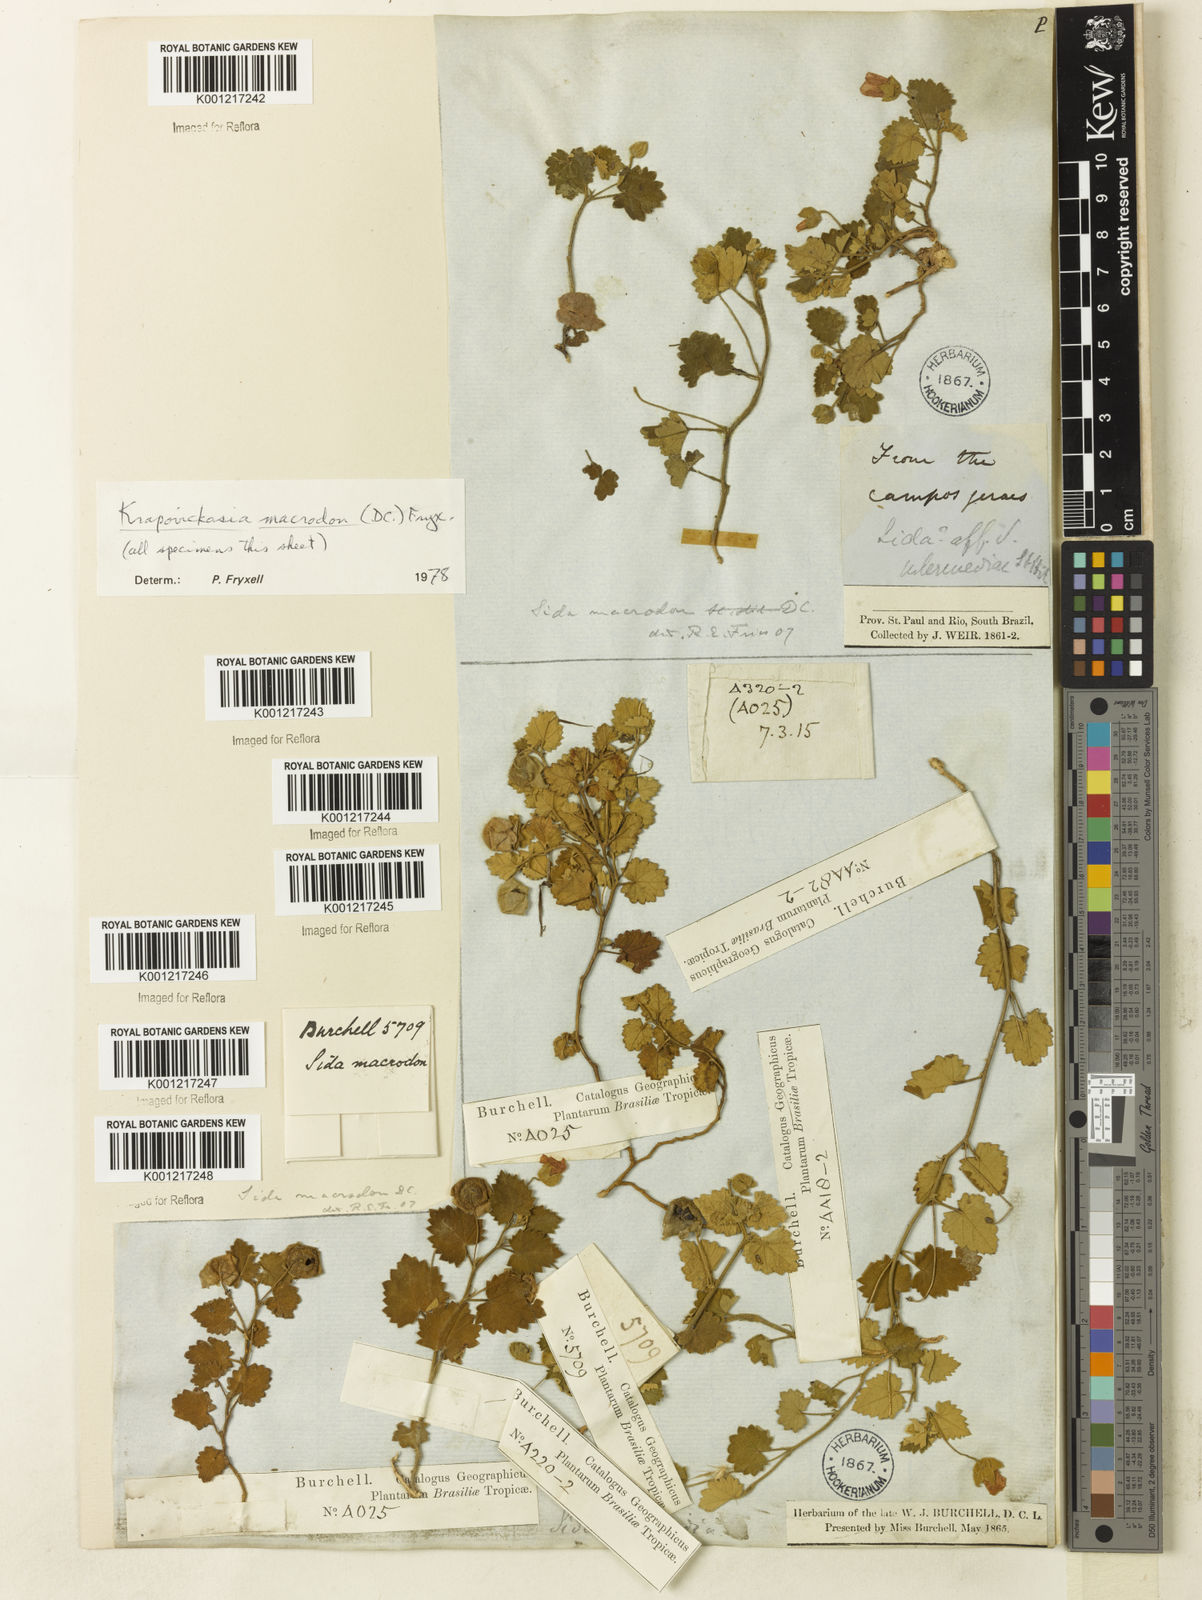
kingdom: Plantae
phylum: Tracheophyta
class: Magnoliopsida
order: Malvales
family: Malvaceae
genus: Krapovickasia
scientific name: Krapovickasia macrodon
